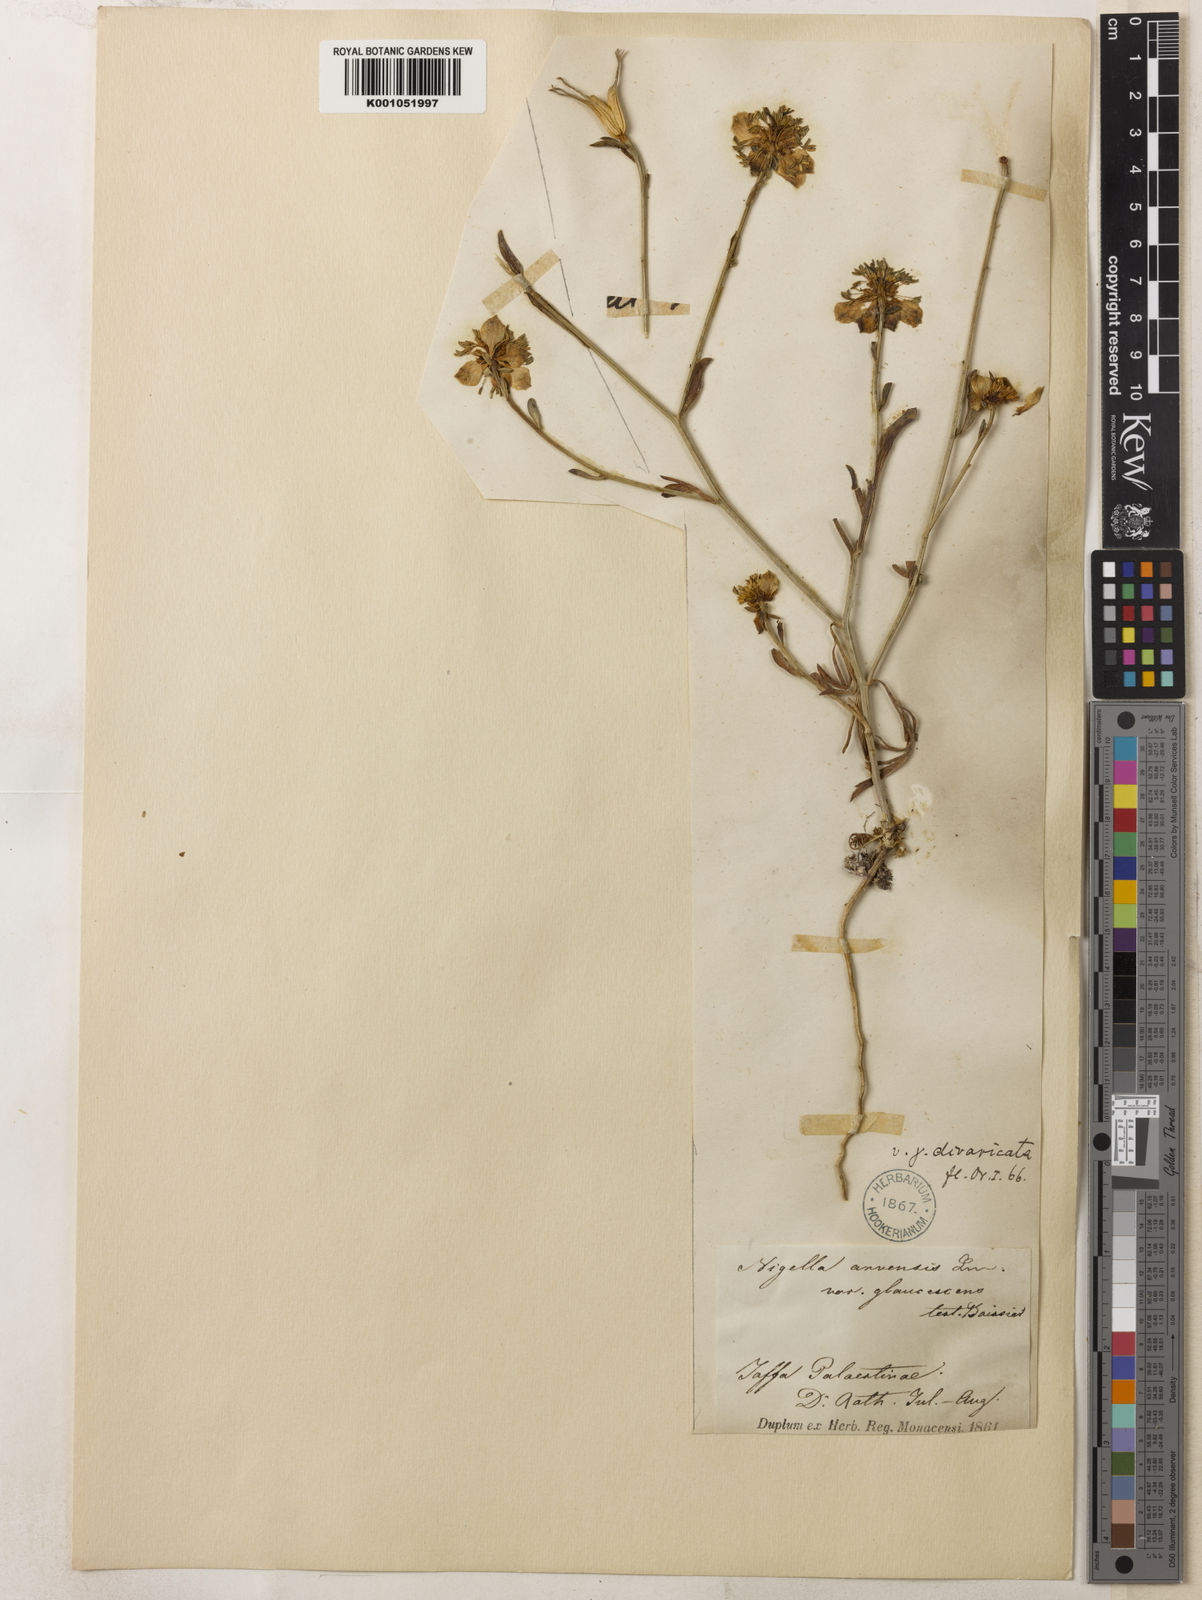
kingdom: Plantae
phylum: Tracheophyta
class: Magnoliopsida
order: Ranunculales
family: Ranunculaceae
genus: Nigella
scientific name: Nigella arvensis
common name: Wild fennel-flower
